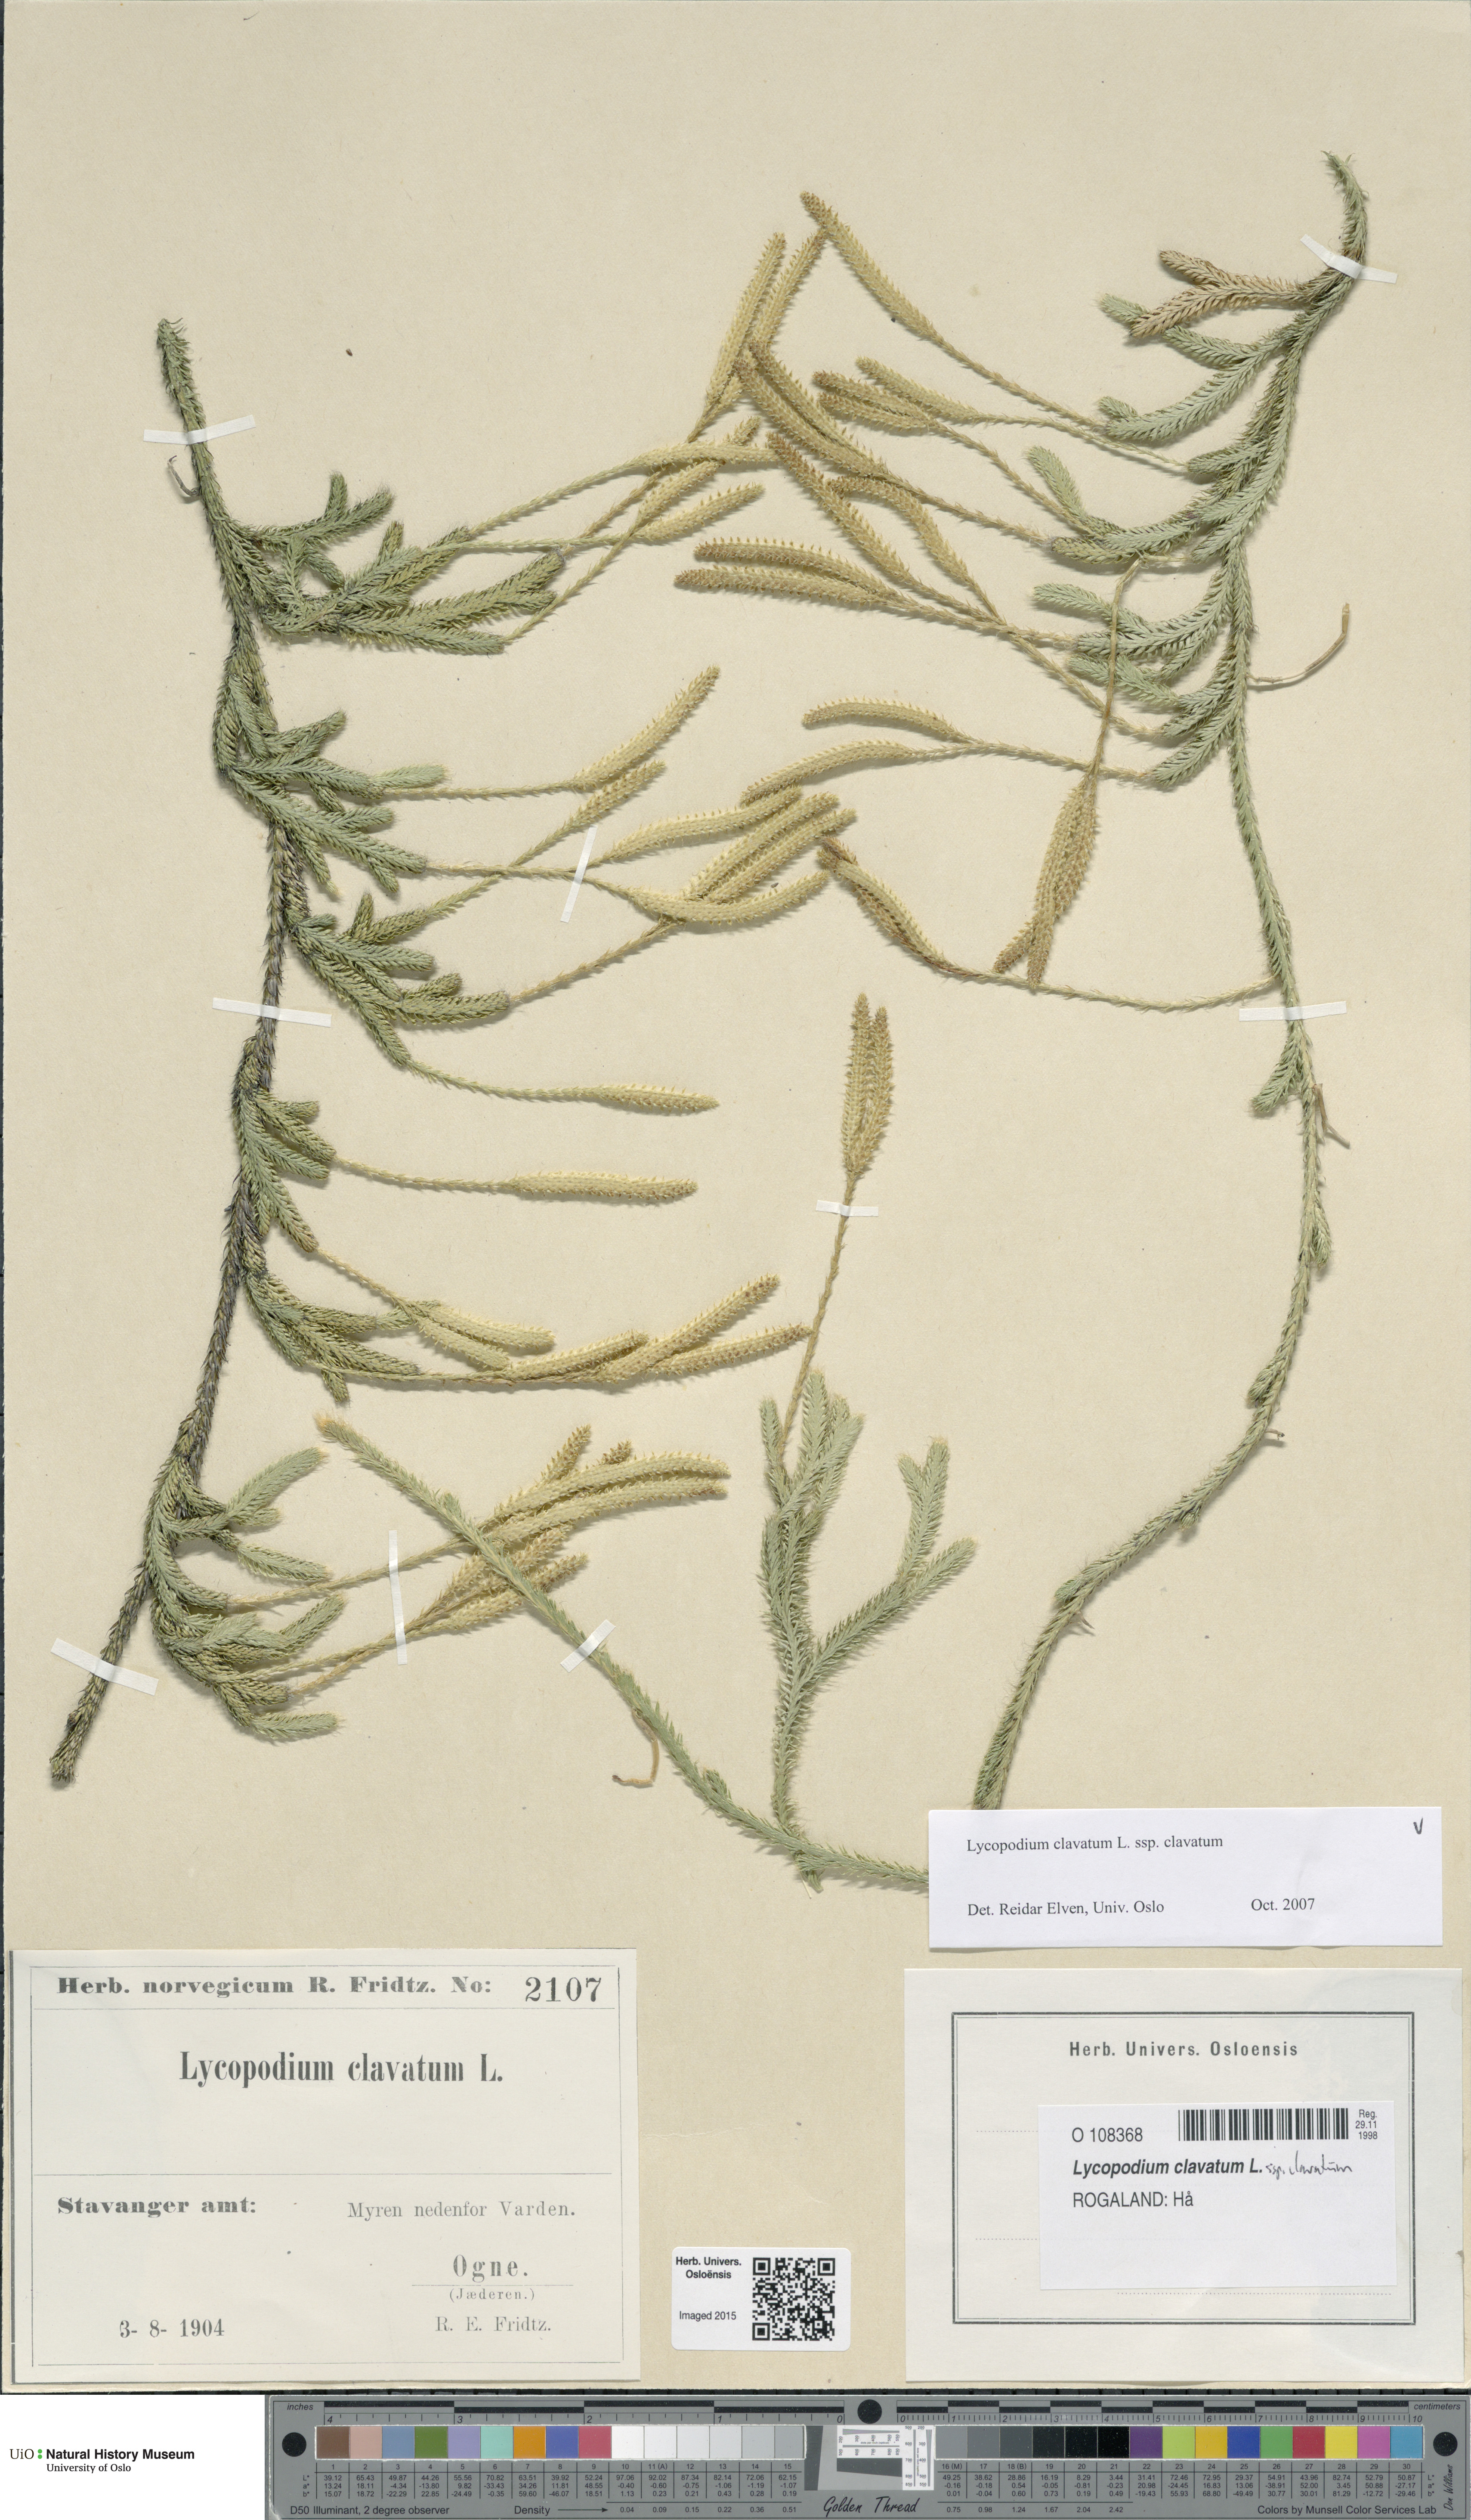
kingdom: Plantae
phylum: Tracheophyta
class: Lycopodiopsida
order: Lycopodiales
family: Lycopodiaceae
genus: Lycopodium
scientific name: Lycopodium clavatum
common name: Stag's-horn clubmoss
